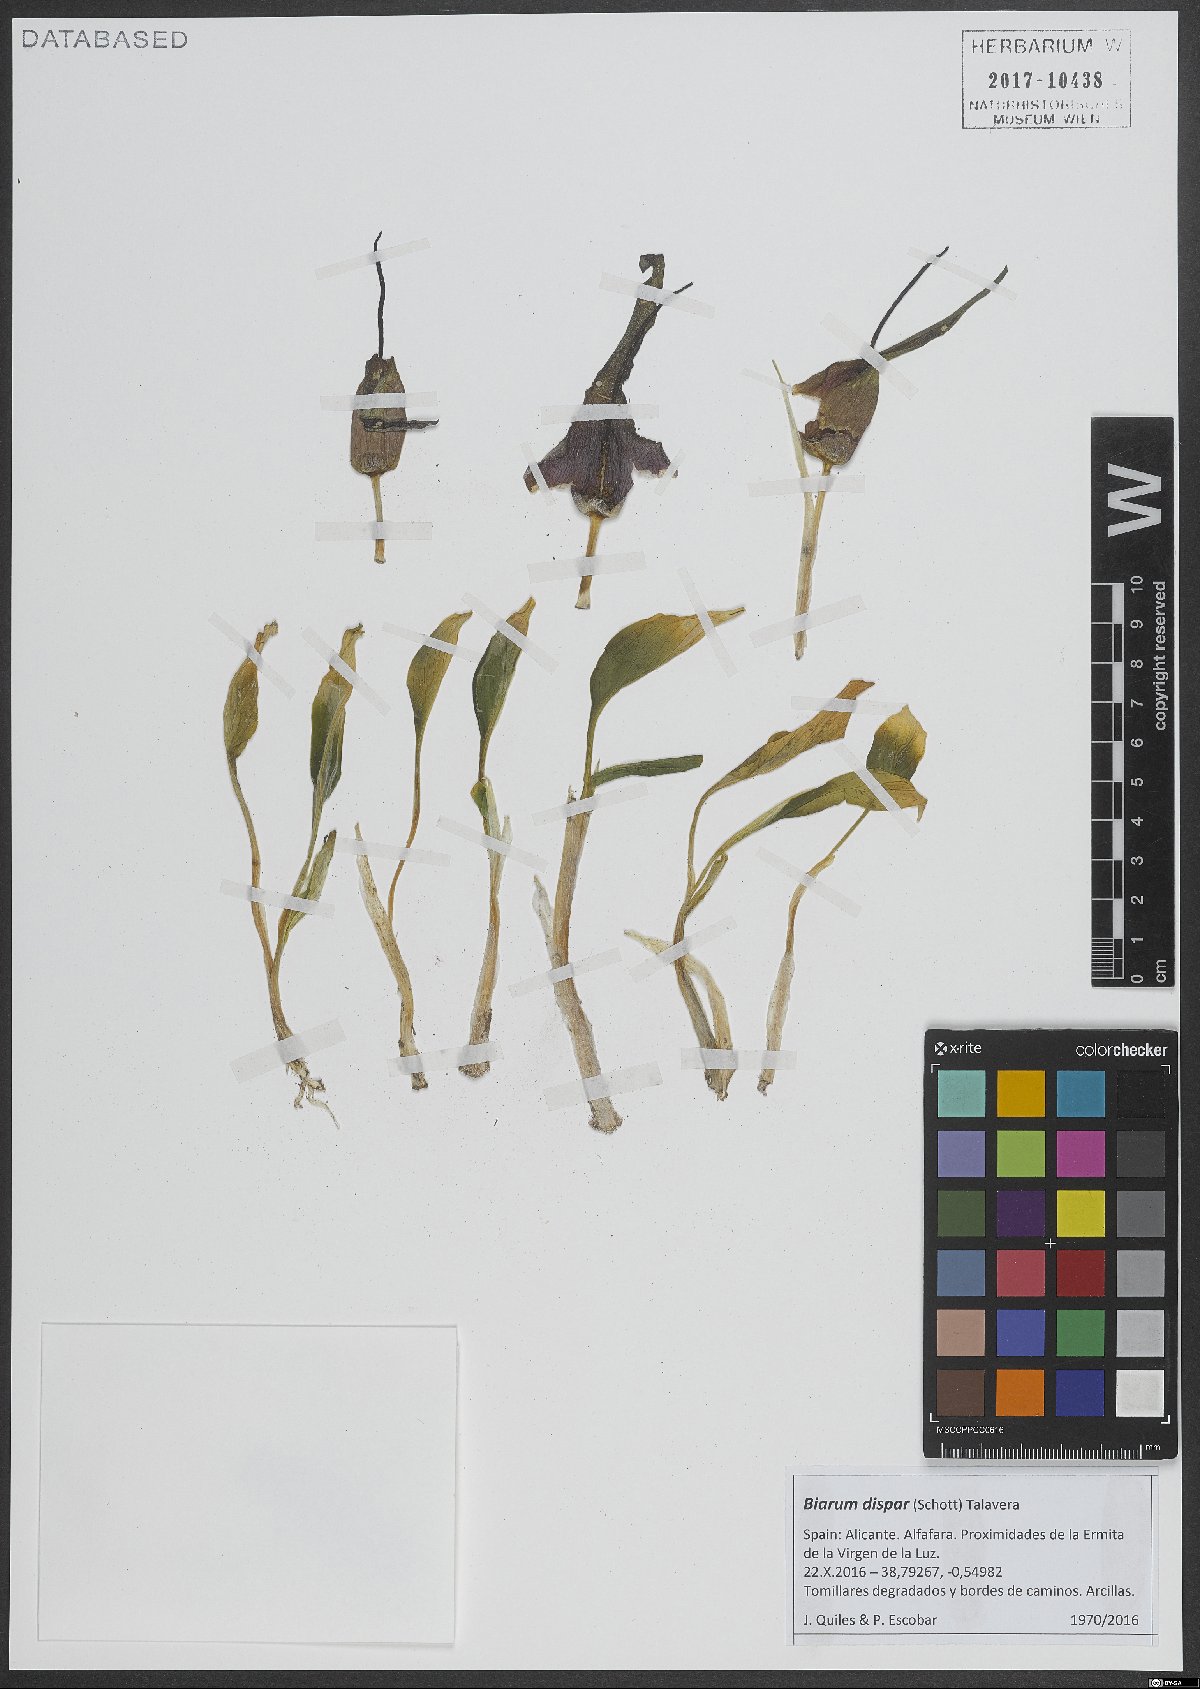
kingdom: Plantae
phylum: Tracheophyta
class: Liliopsida
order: Alismatales
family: Araceae
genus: Biarum
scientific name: Biarum dispar
